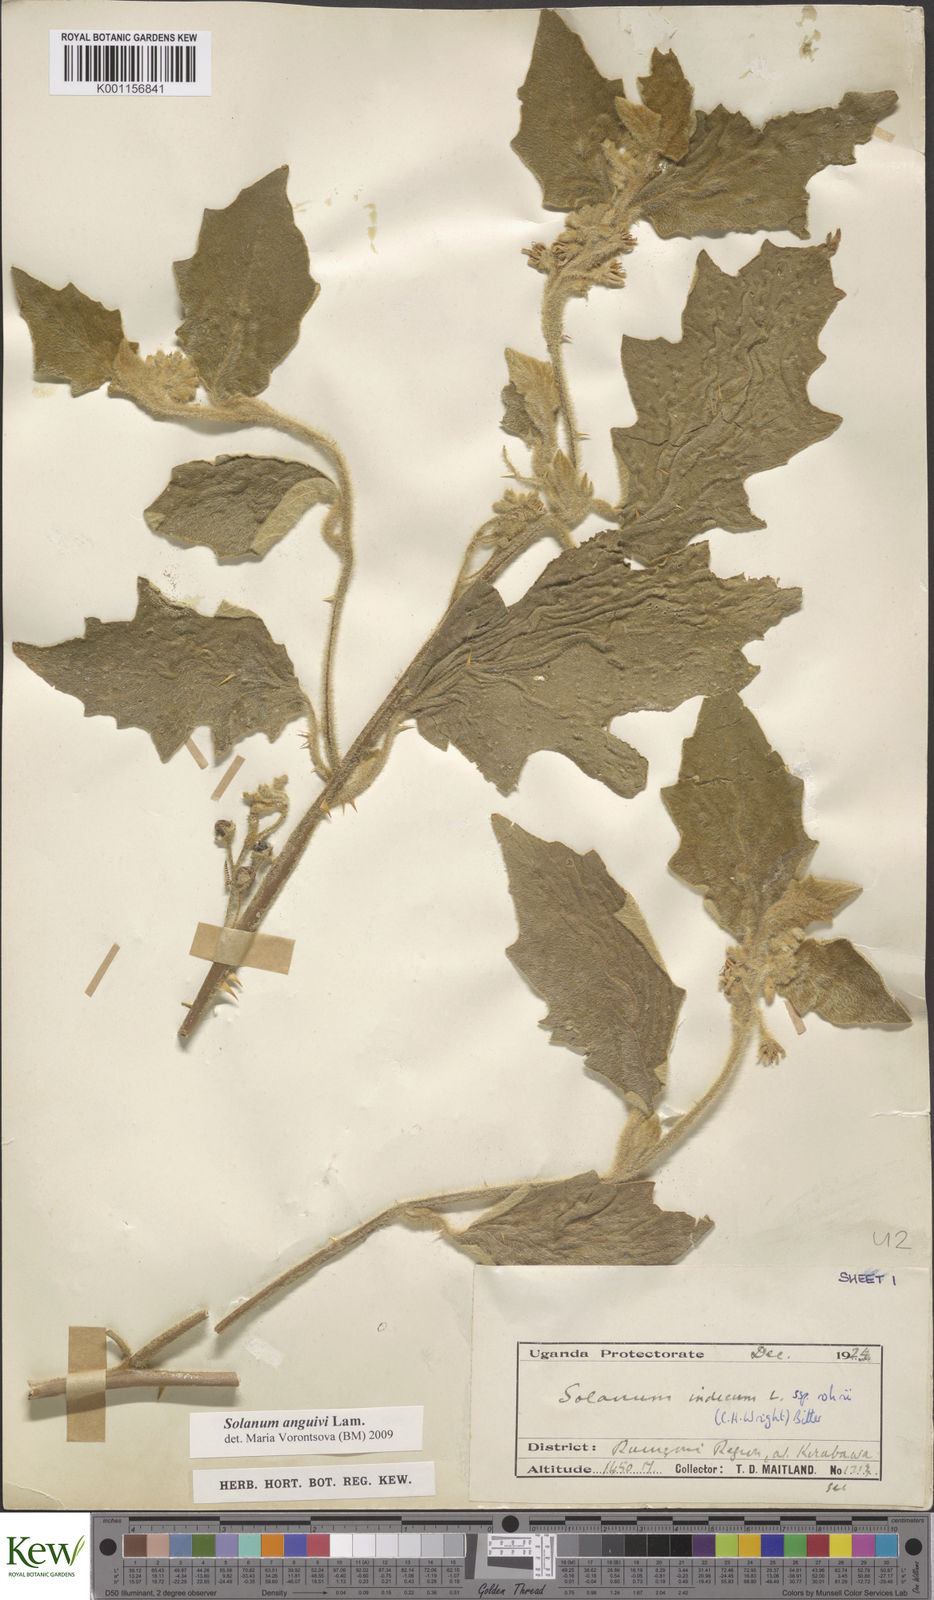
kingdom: Plantae
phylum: Tracheophyta
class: Magnoliopsida
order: Solanales
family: Solanaceae
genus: Solanum
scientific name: Solanum anguivi
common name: Forest bitterberry
